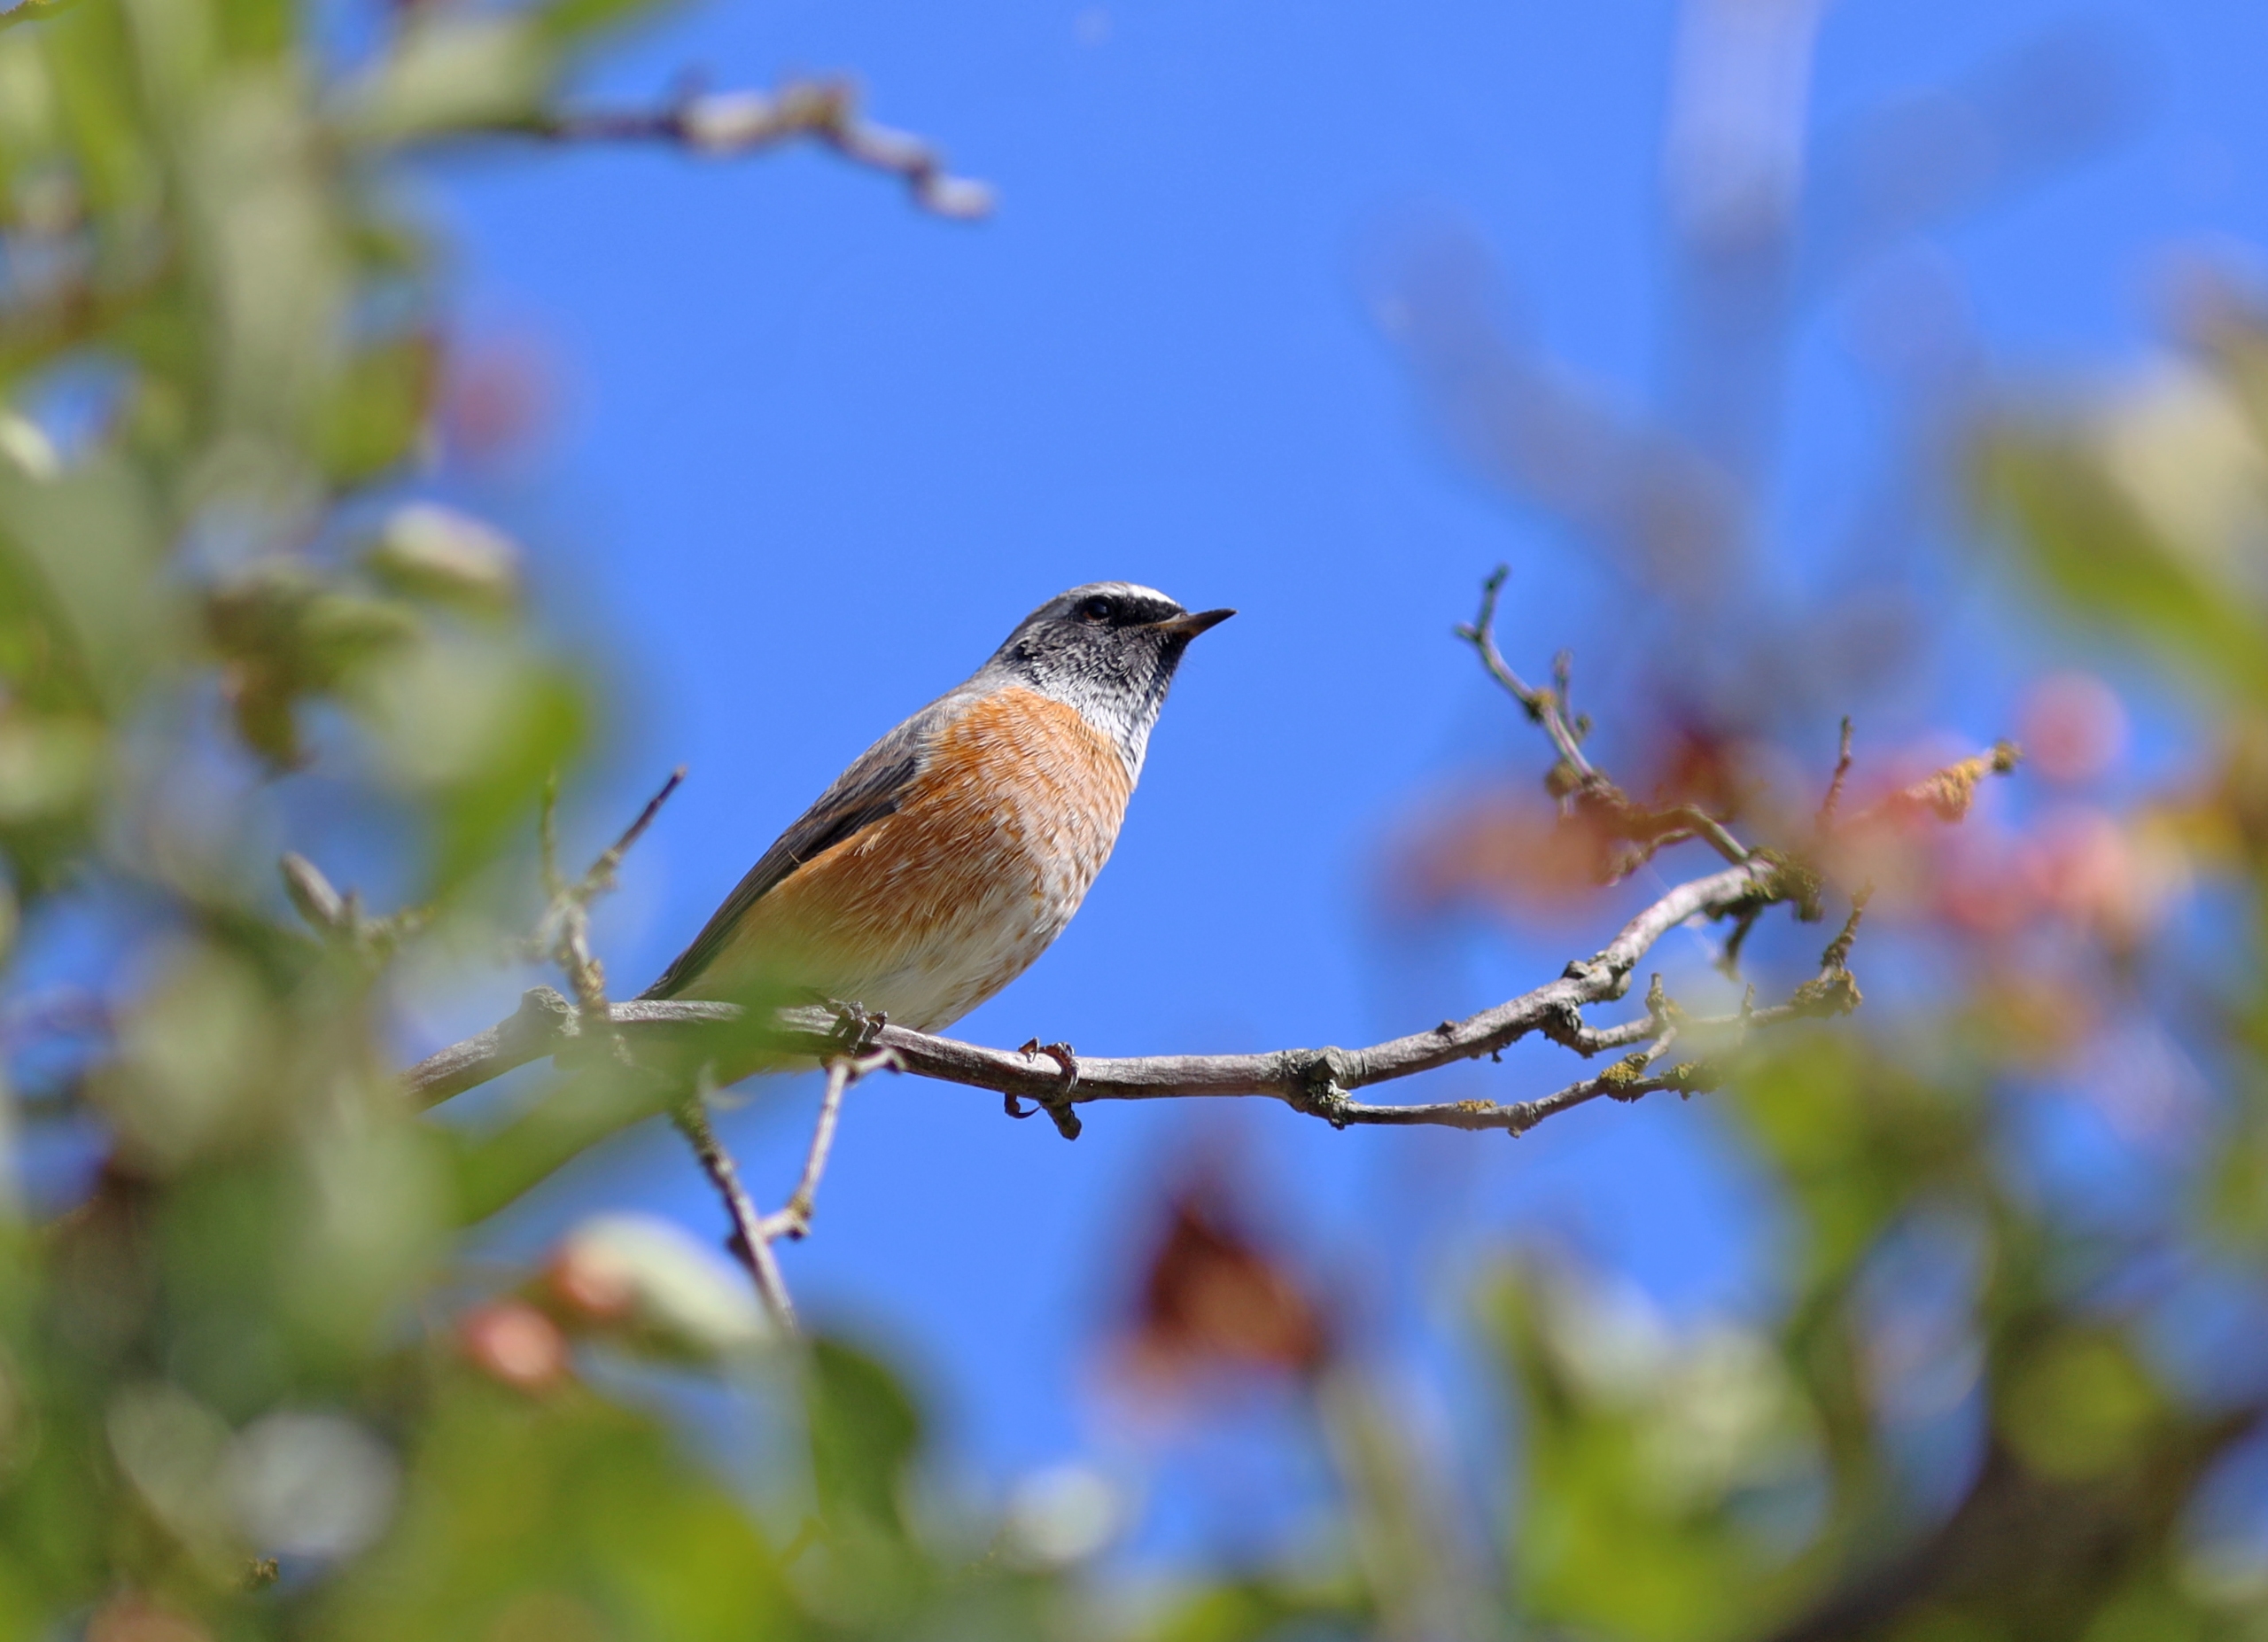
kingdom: Animalia
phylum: Chordata
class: Aves
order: Passeriformes
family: Muscicapidae
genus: Phoenicurus
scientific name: Phoenicurus phoenicurus
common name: Rødstjert
